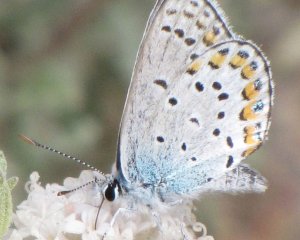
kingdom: Animalia
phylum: Arthropoda
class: Insecta
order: Lepidoptera
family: Lycaenidae
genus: Lycaeides
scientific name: Lycaeides melissa
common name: Melissa Blue
